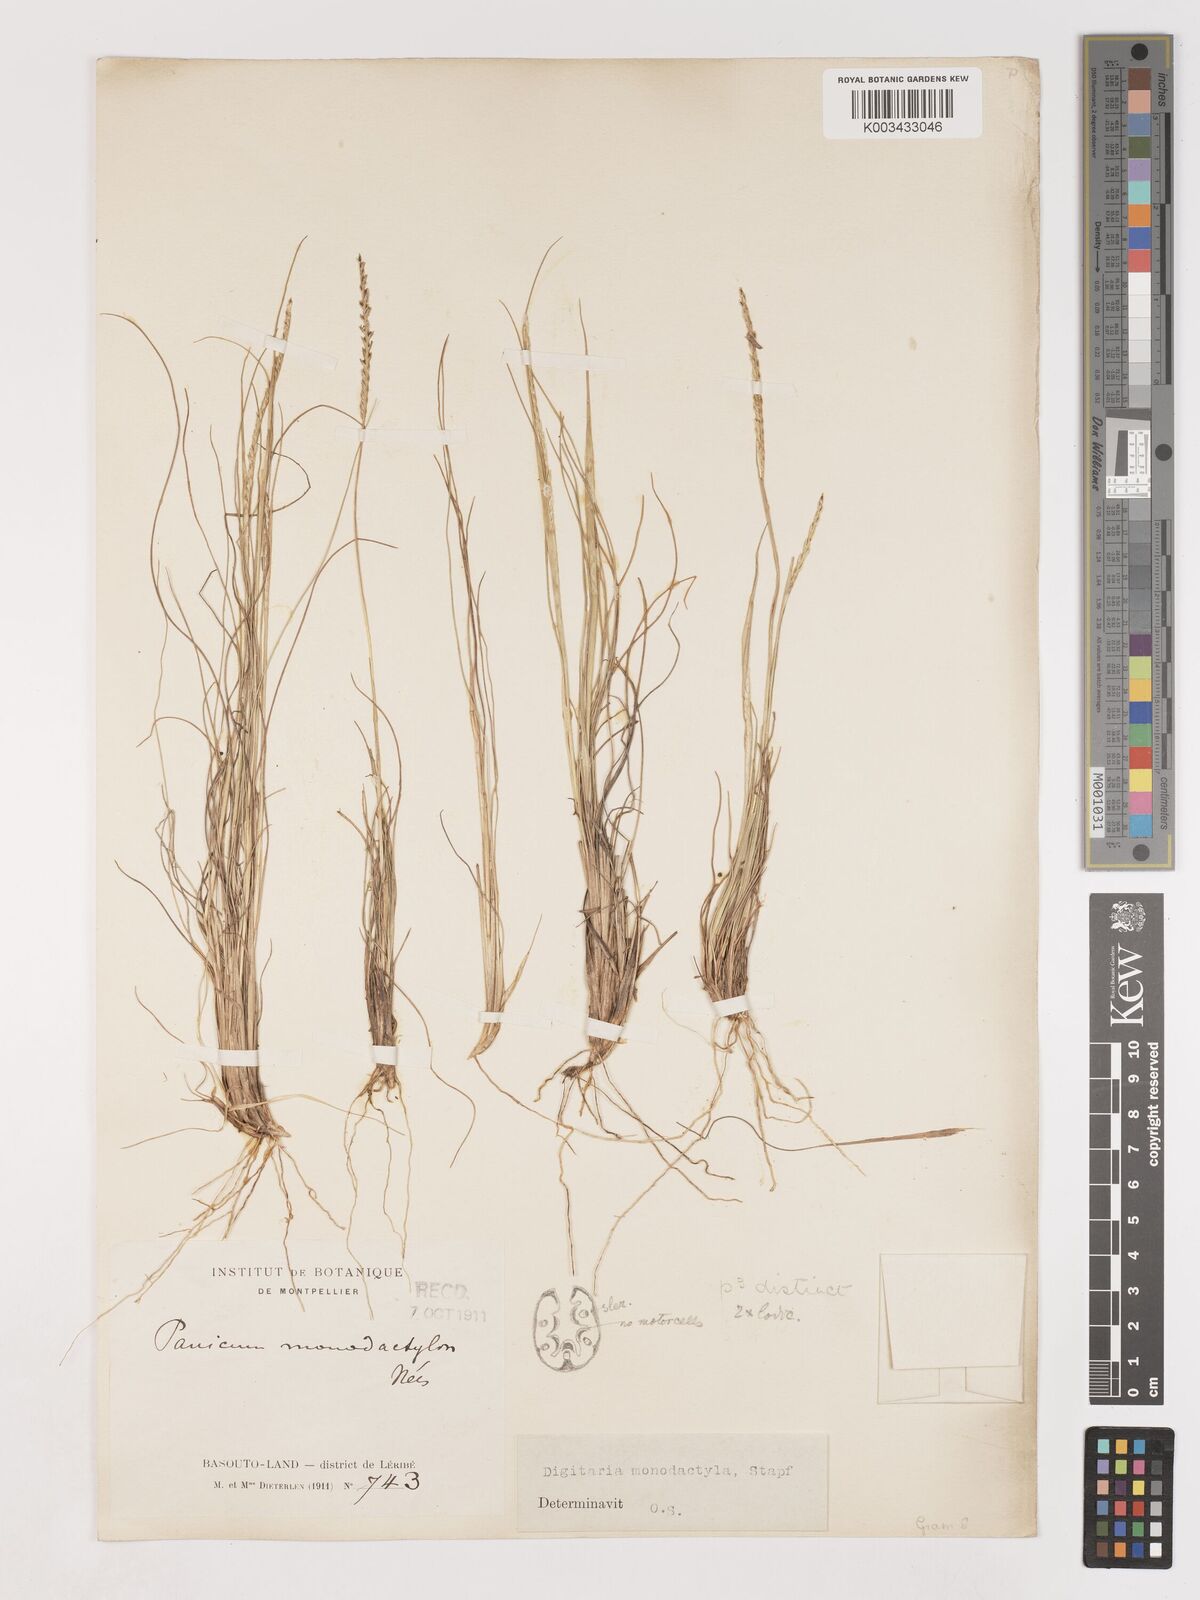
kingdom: Plantae
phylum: Tracheophyta
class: Liliopsida
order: Poales
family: Poaceae
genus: Digitaria
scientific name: Digitaria monodactyla
